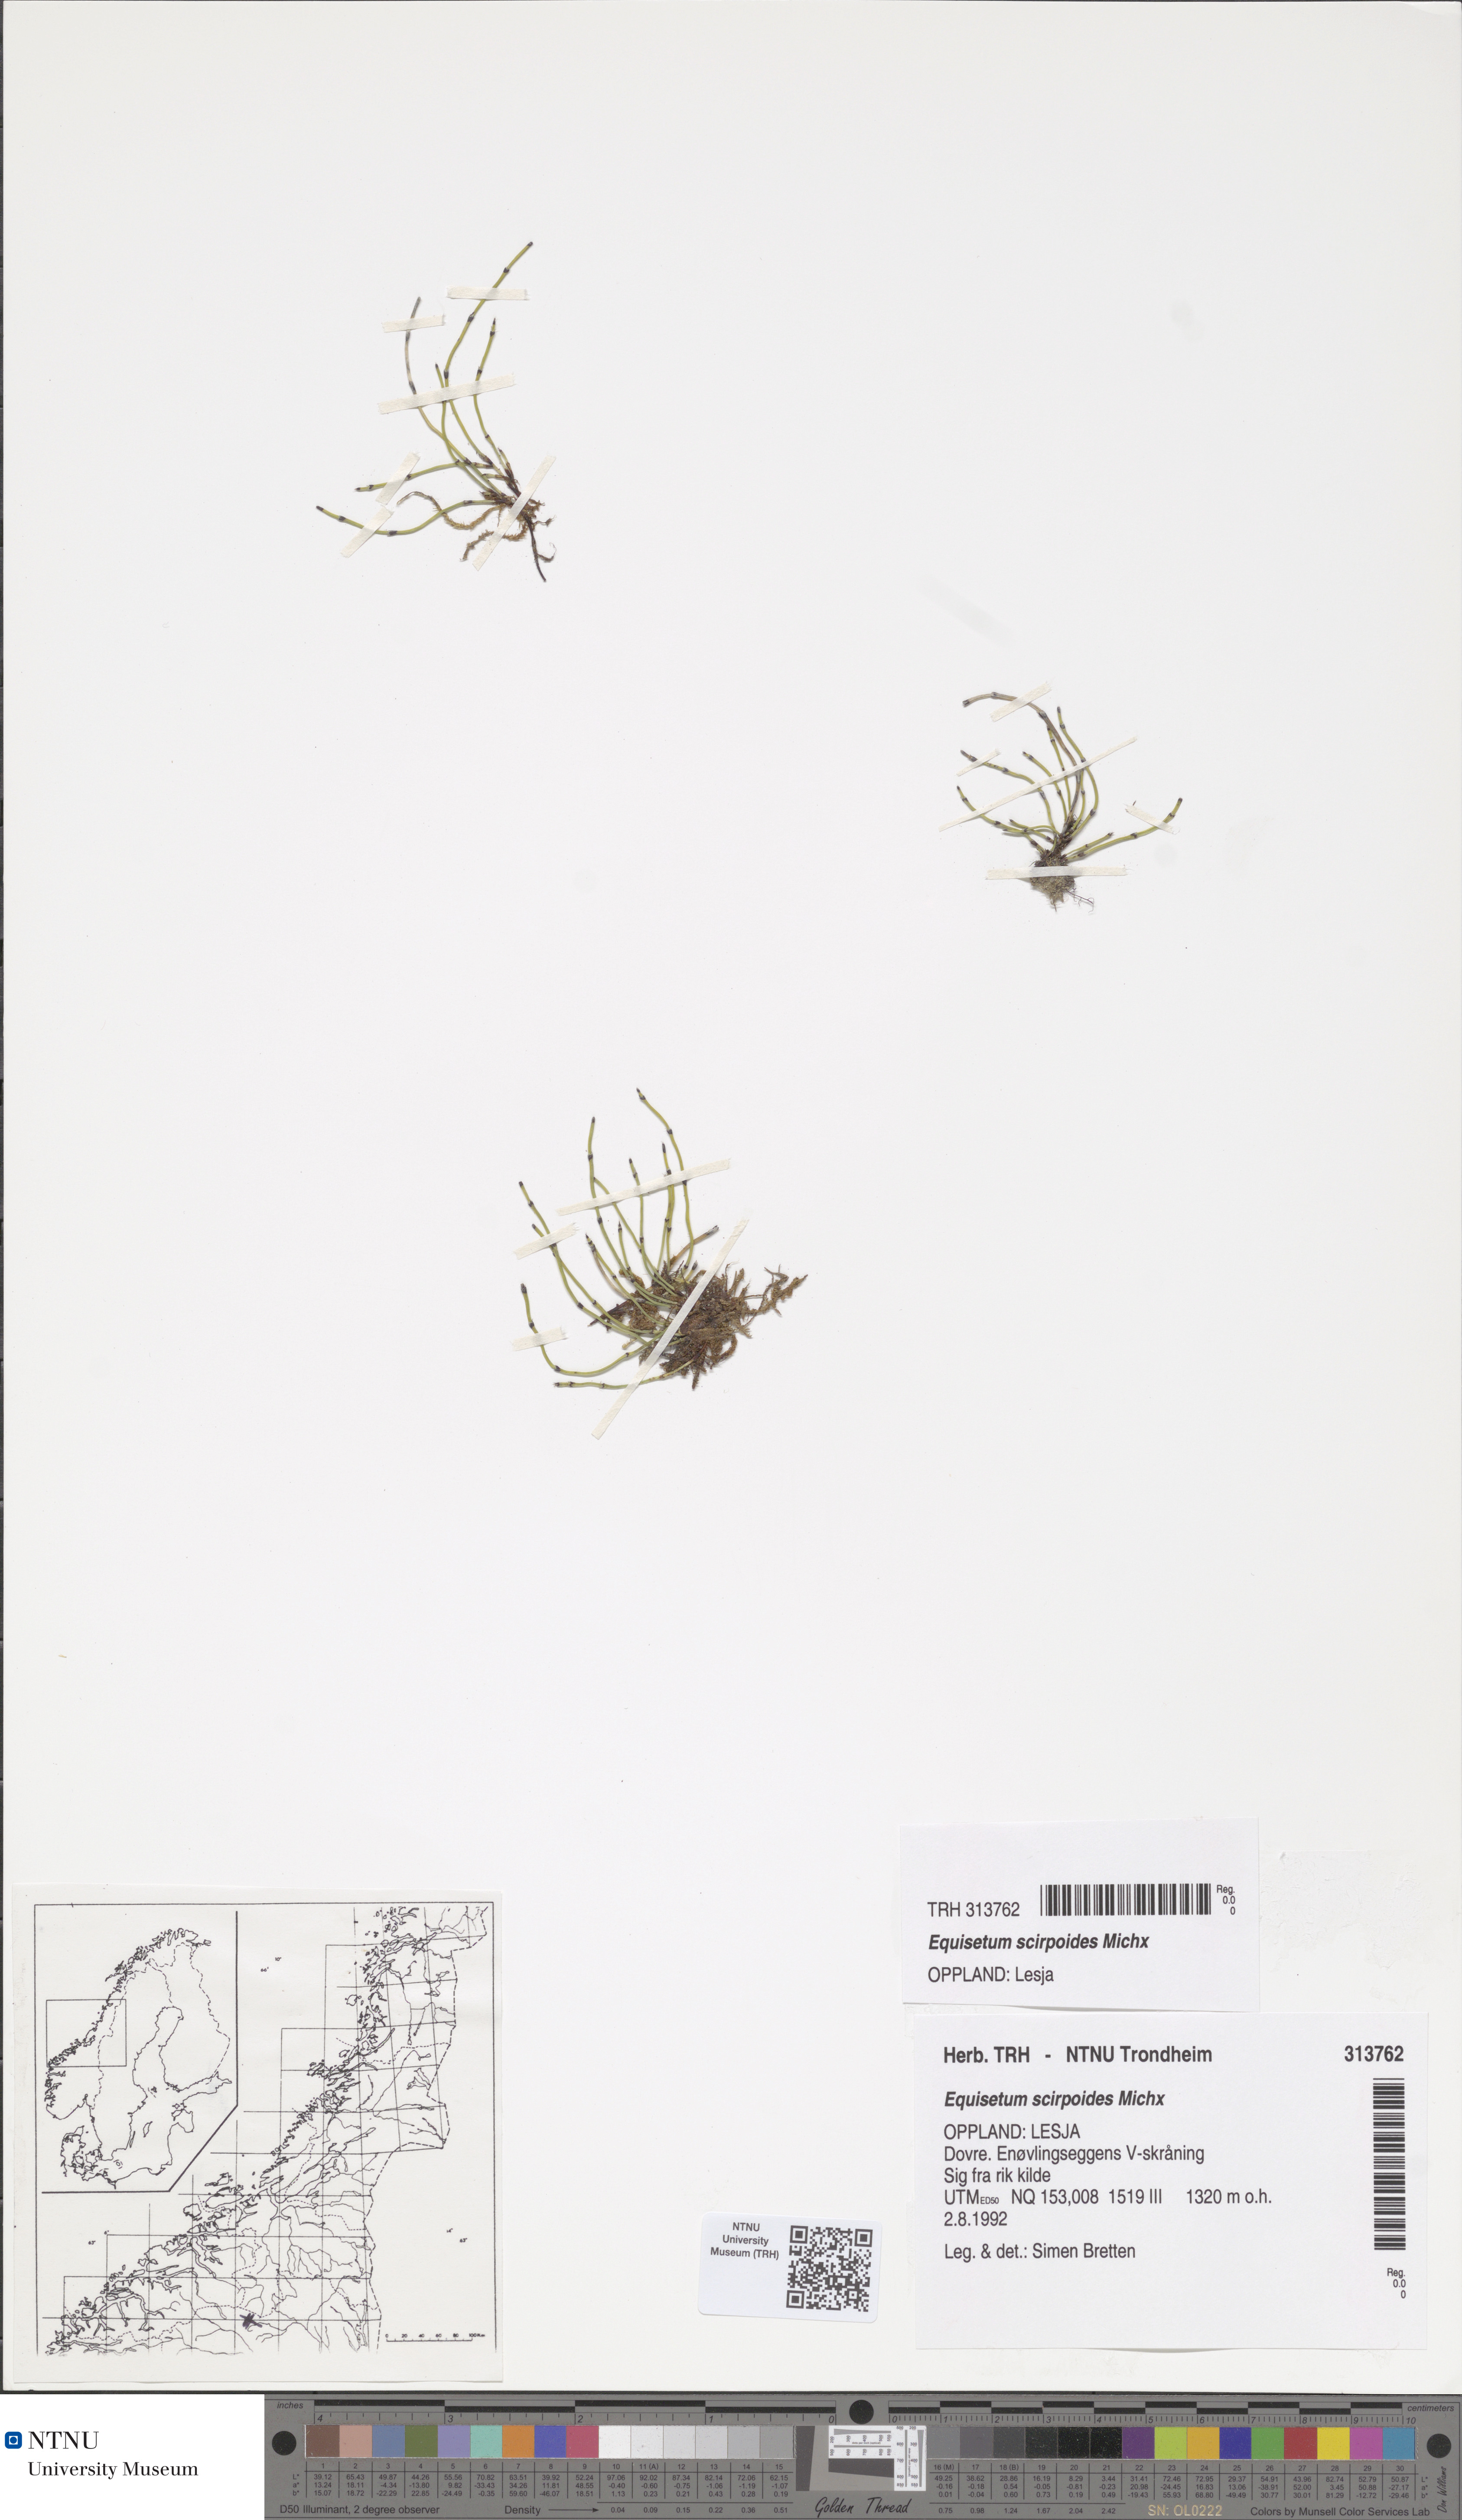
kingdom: Plantae
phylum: Tracheophyta
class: Polypodiopsida
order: Equisetales
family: Equisetaceae
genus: Equisetum
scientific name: Equisetum scirpoides
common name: Delicate horsetail
